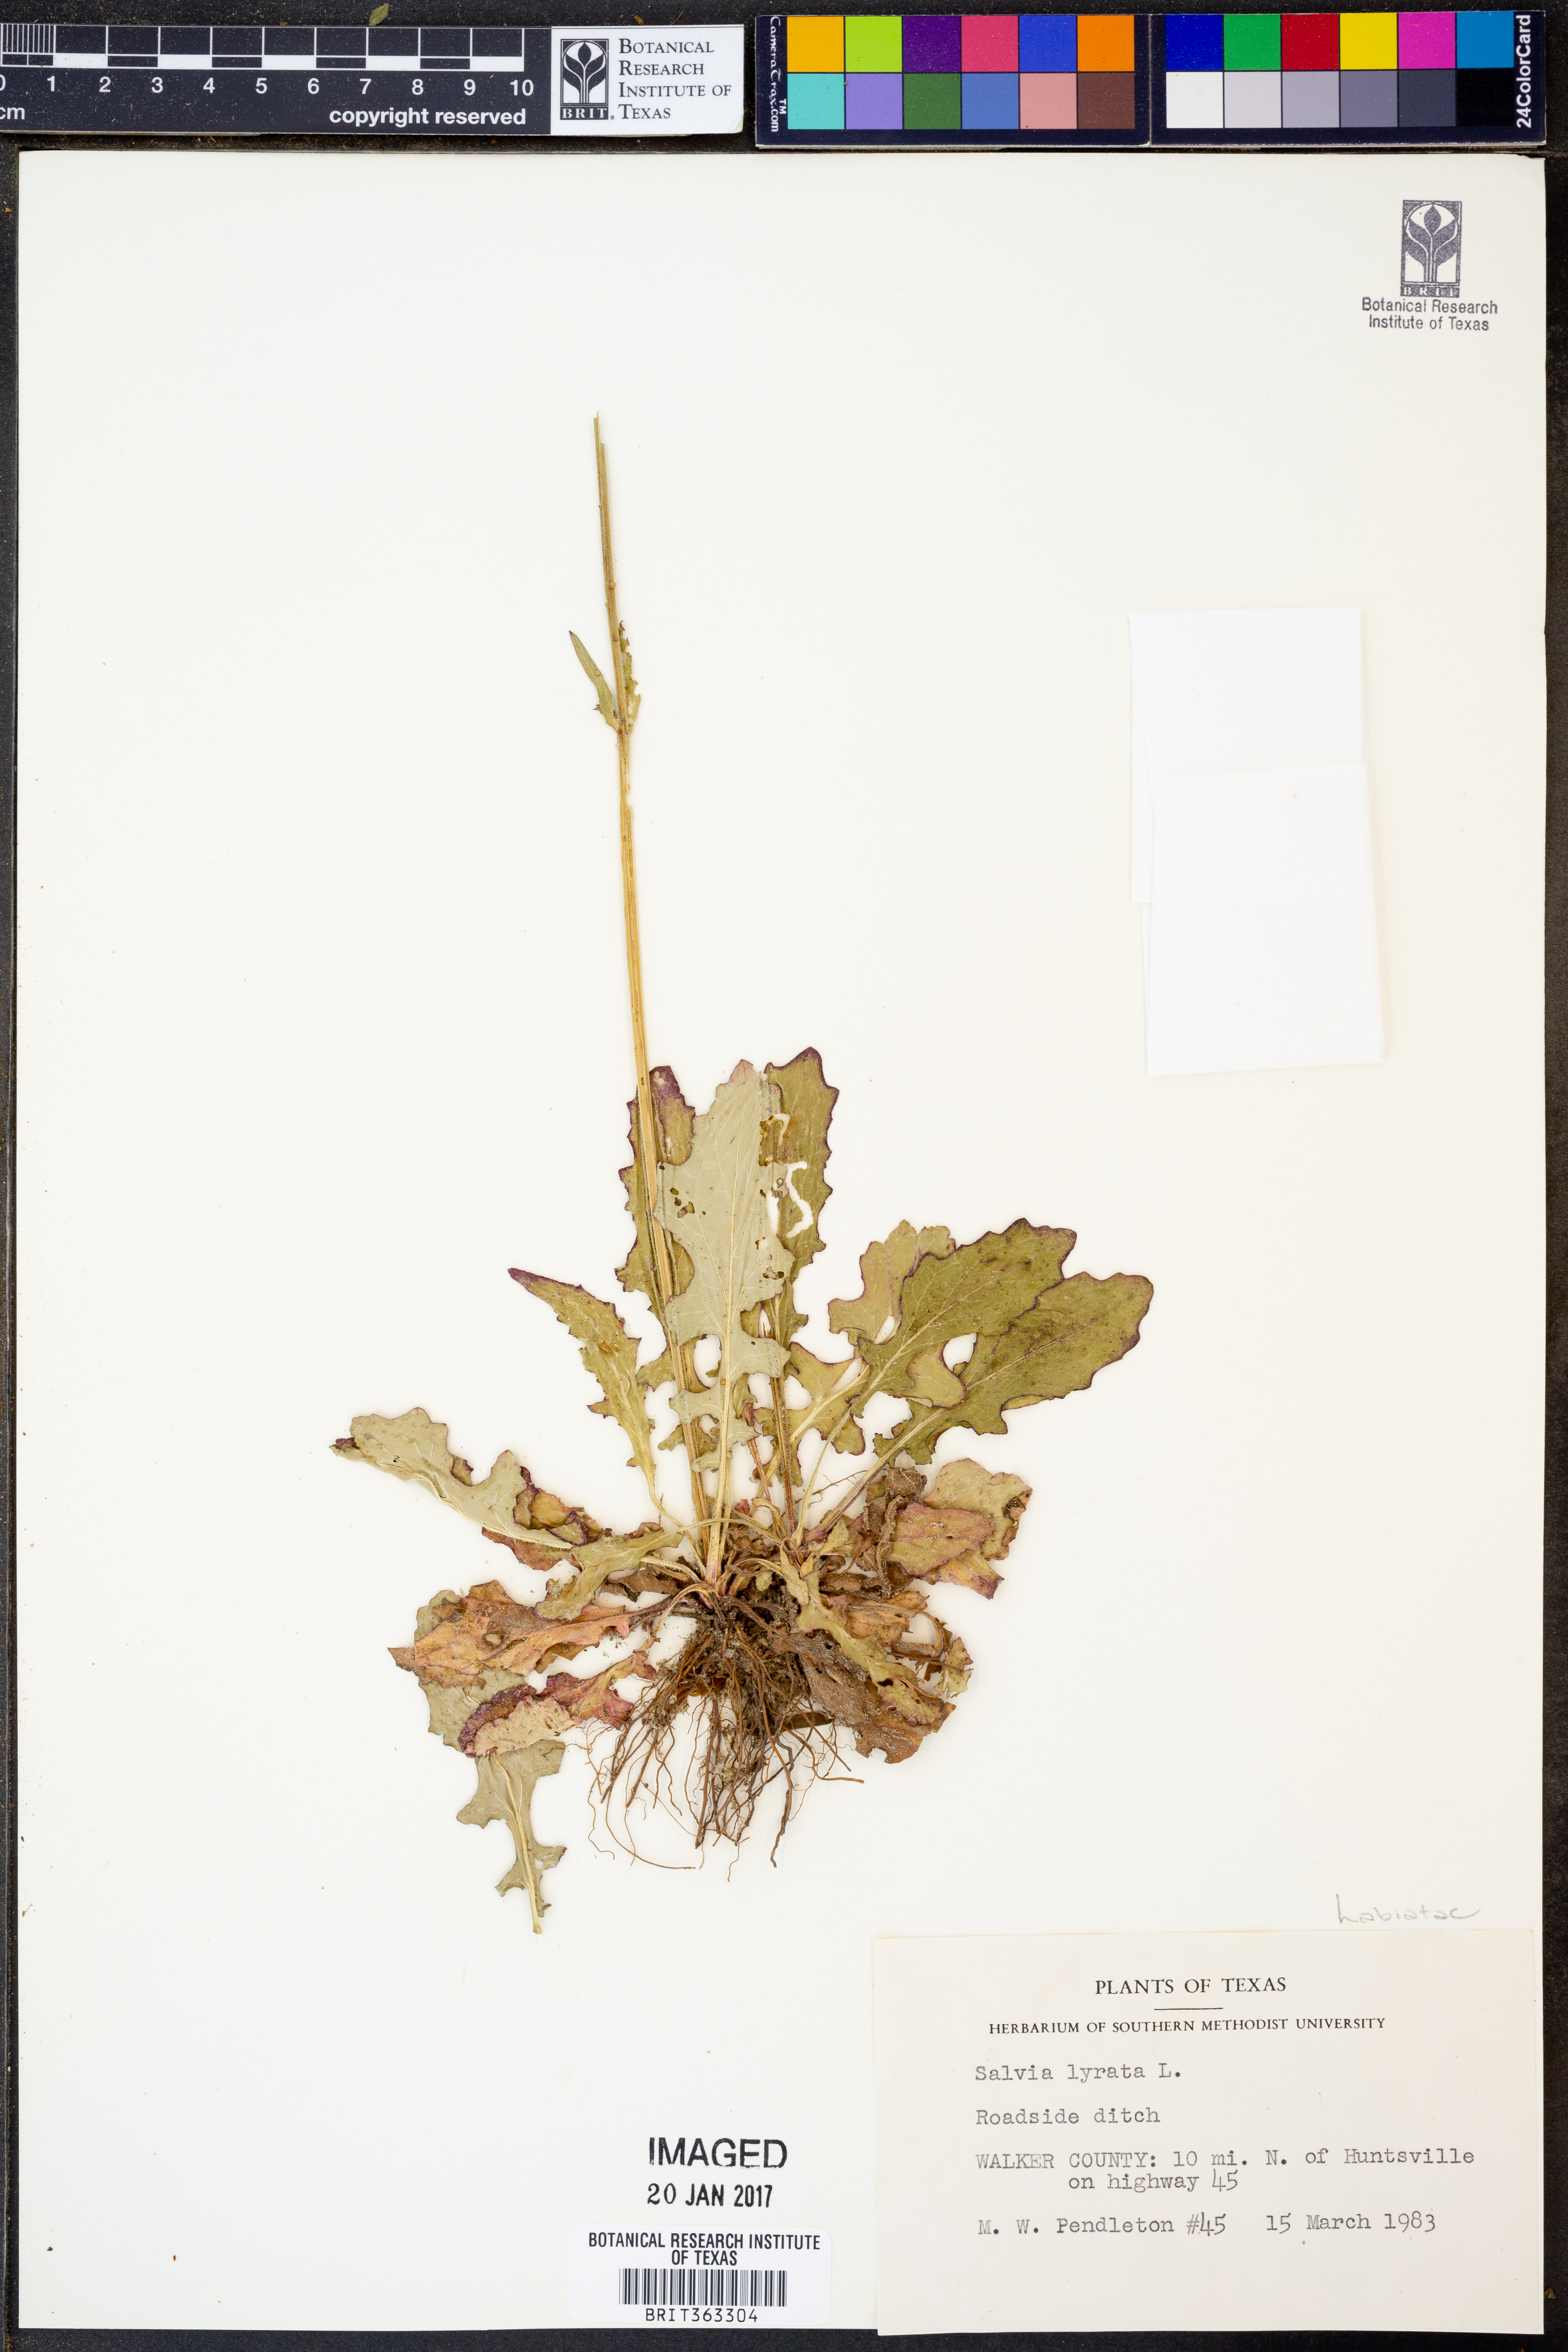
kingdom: Plantae
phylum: Tracheophyta
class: Magnoliopsida
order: Lamiales
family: Lamiaceae
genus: Salvia
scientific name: Salvia lyrata
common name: Cancerweed
